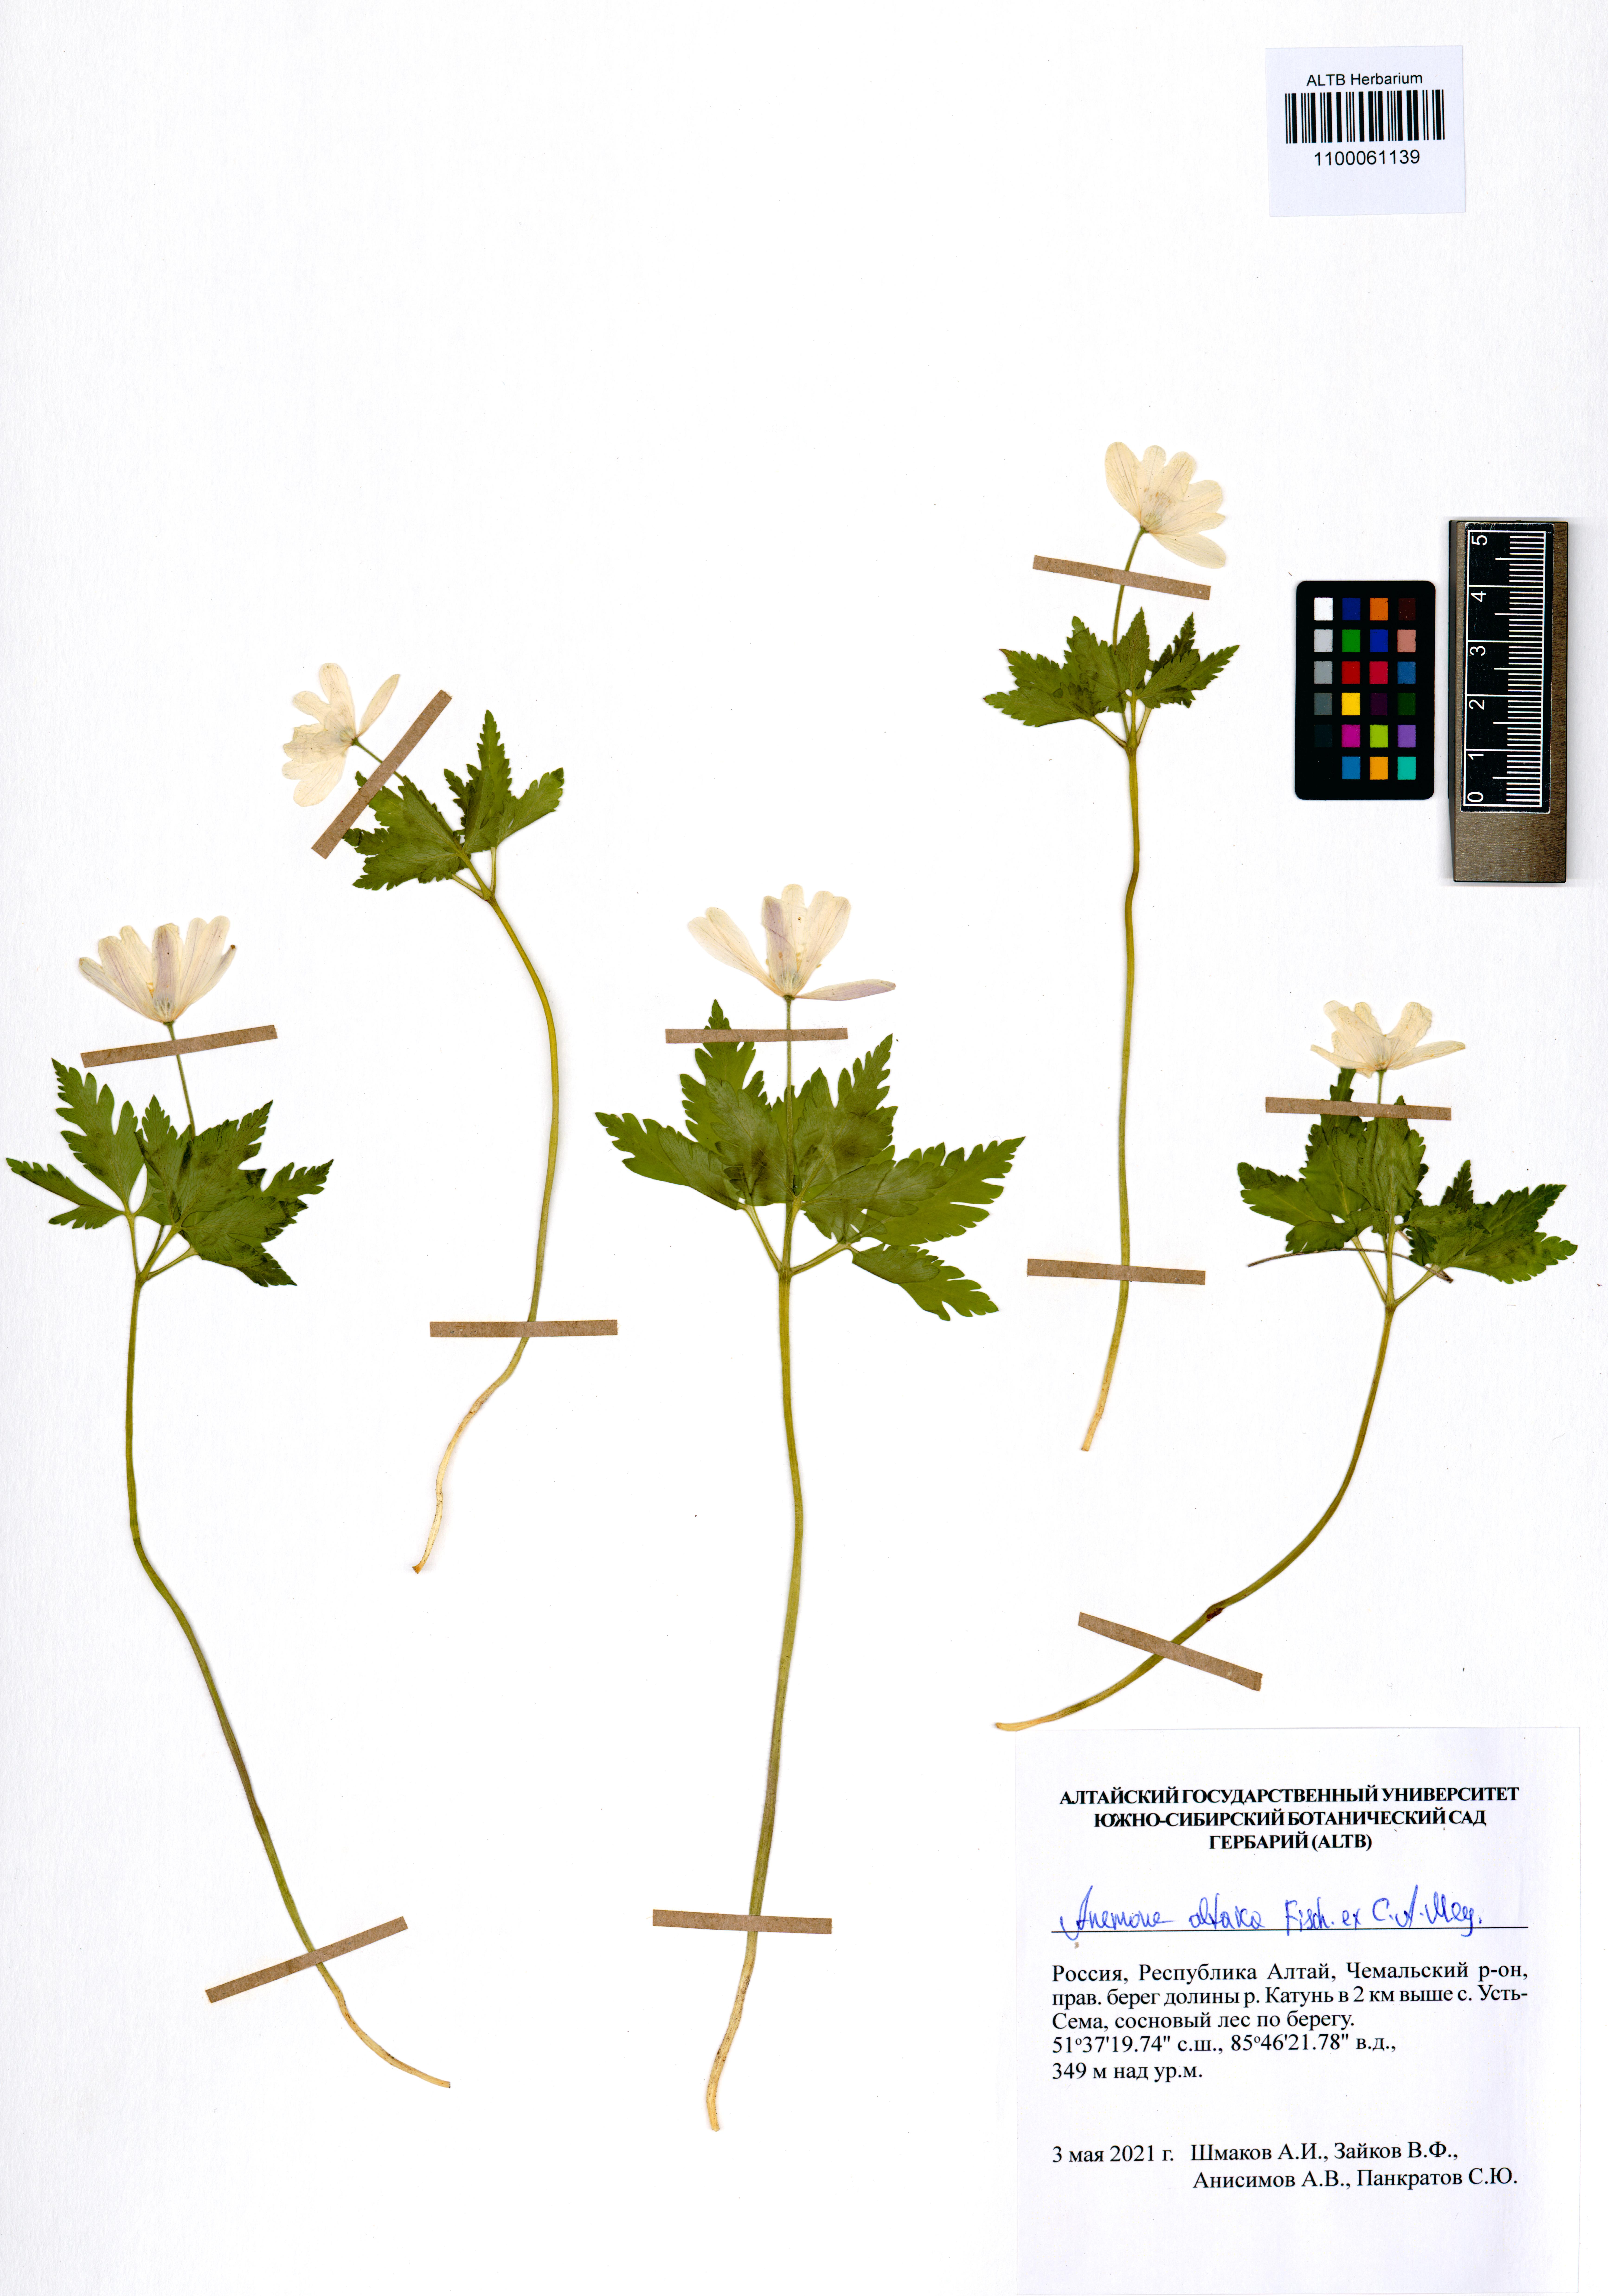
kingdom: Plantae
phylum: Tracheophyta
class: Magnoliopsida
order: Ranunculales
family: Ranunculaceae
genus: Anemone
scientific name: Anemone altaica
